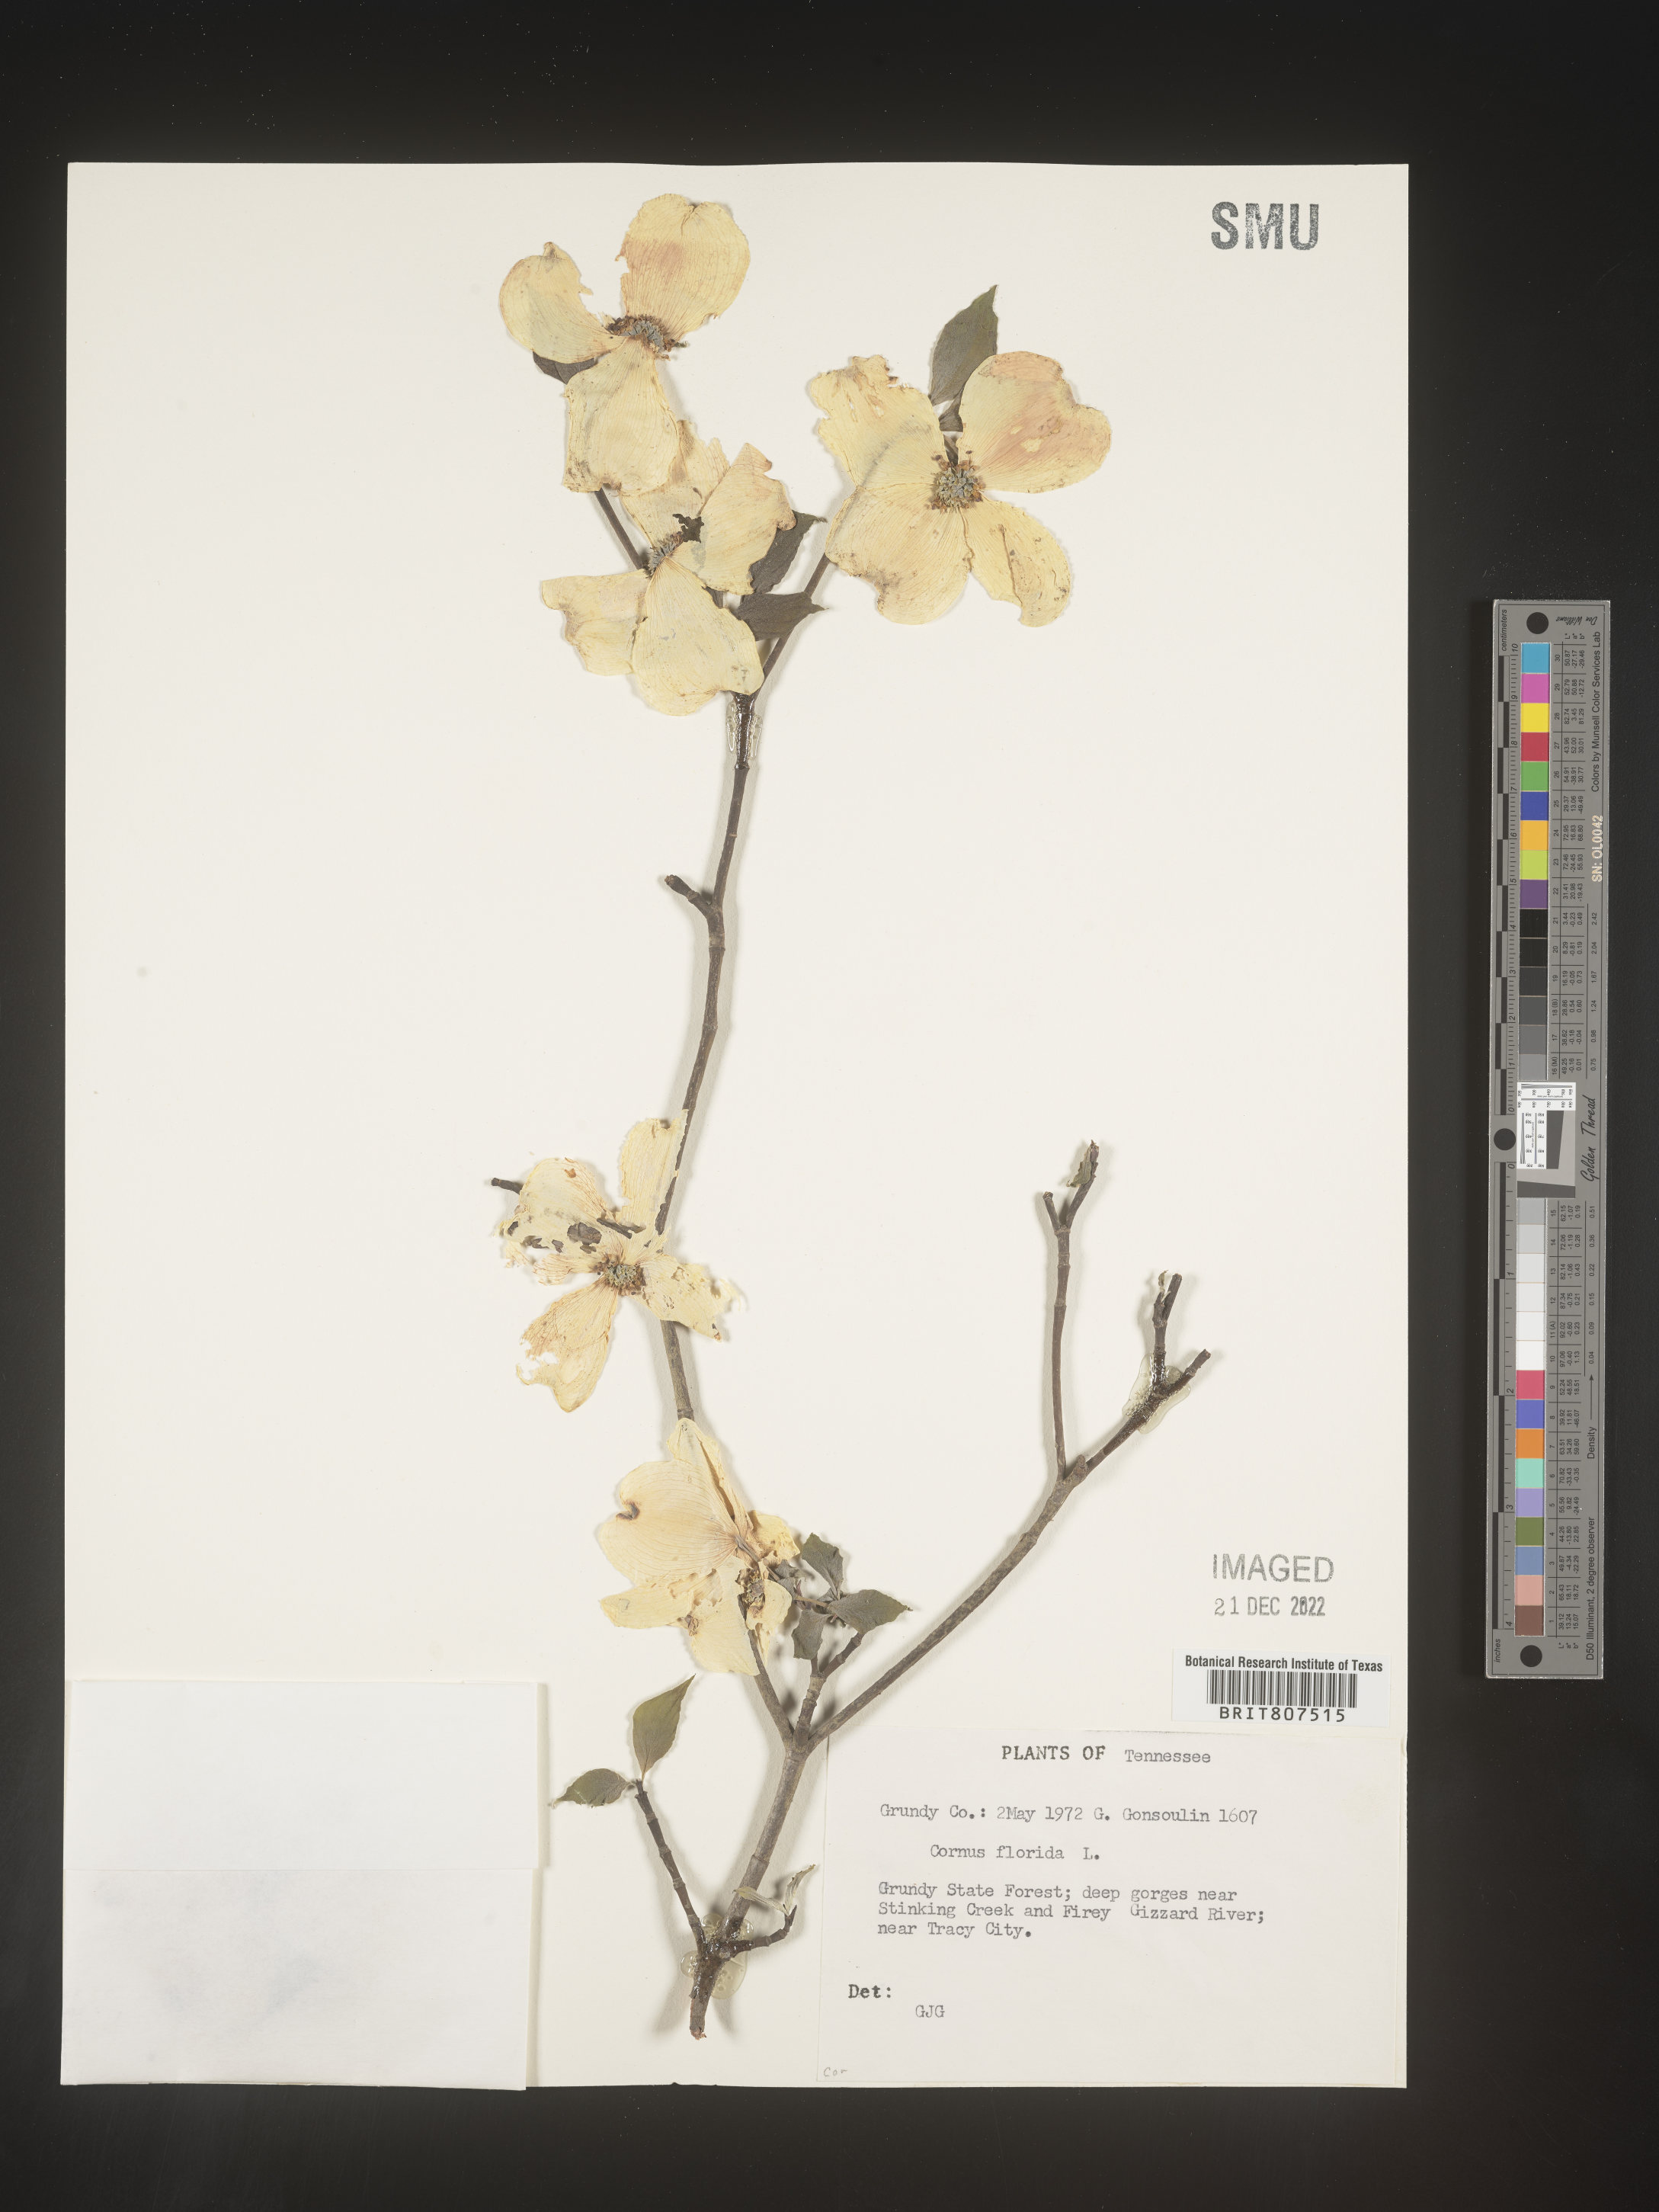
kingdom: Plantae
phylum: Tracheophyta
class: Magnoliopsida
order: Cornales
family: Cornaceae
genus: Cornus
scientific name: Cornus florida
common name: Flowering dogwood
